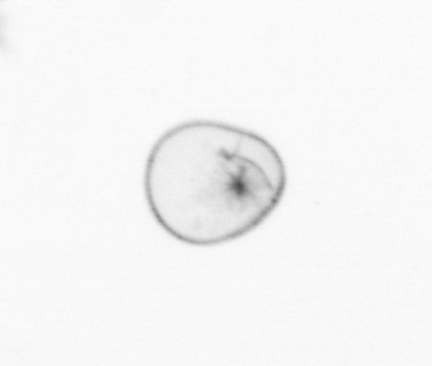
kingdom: Chromista
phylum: Myzozoa
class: Dinophyceae
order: Noctilucales
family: Noctilucaceae
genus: Noctiluca
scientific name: Noctiluca scintillans
